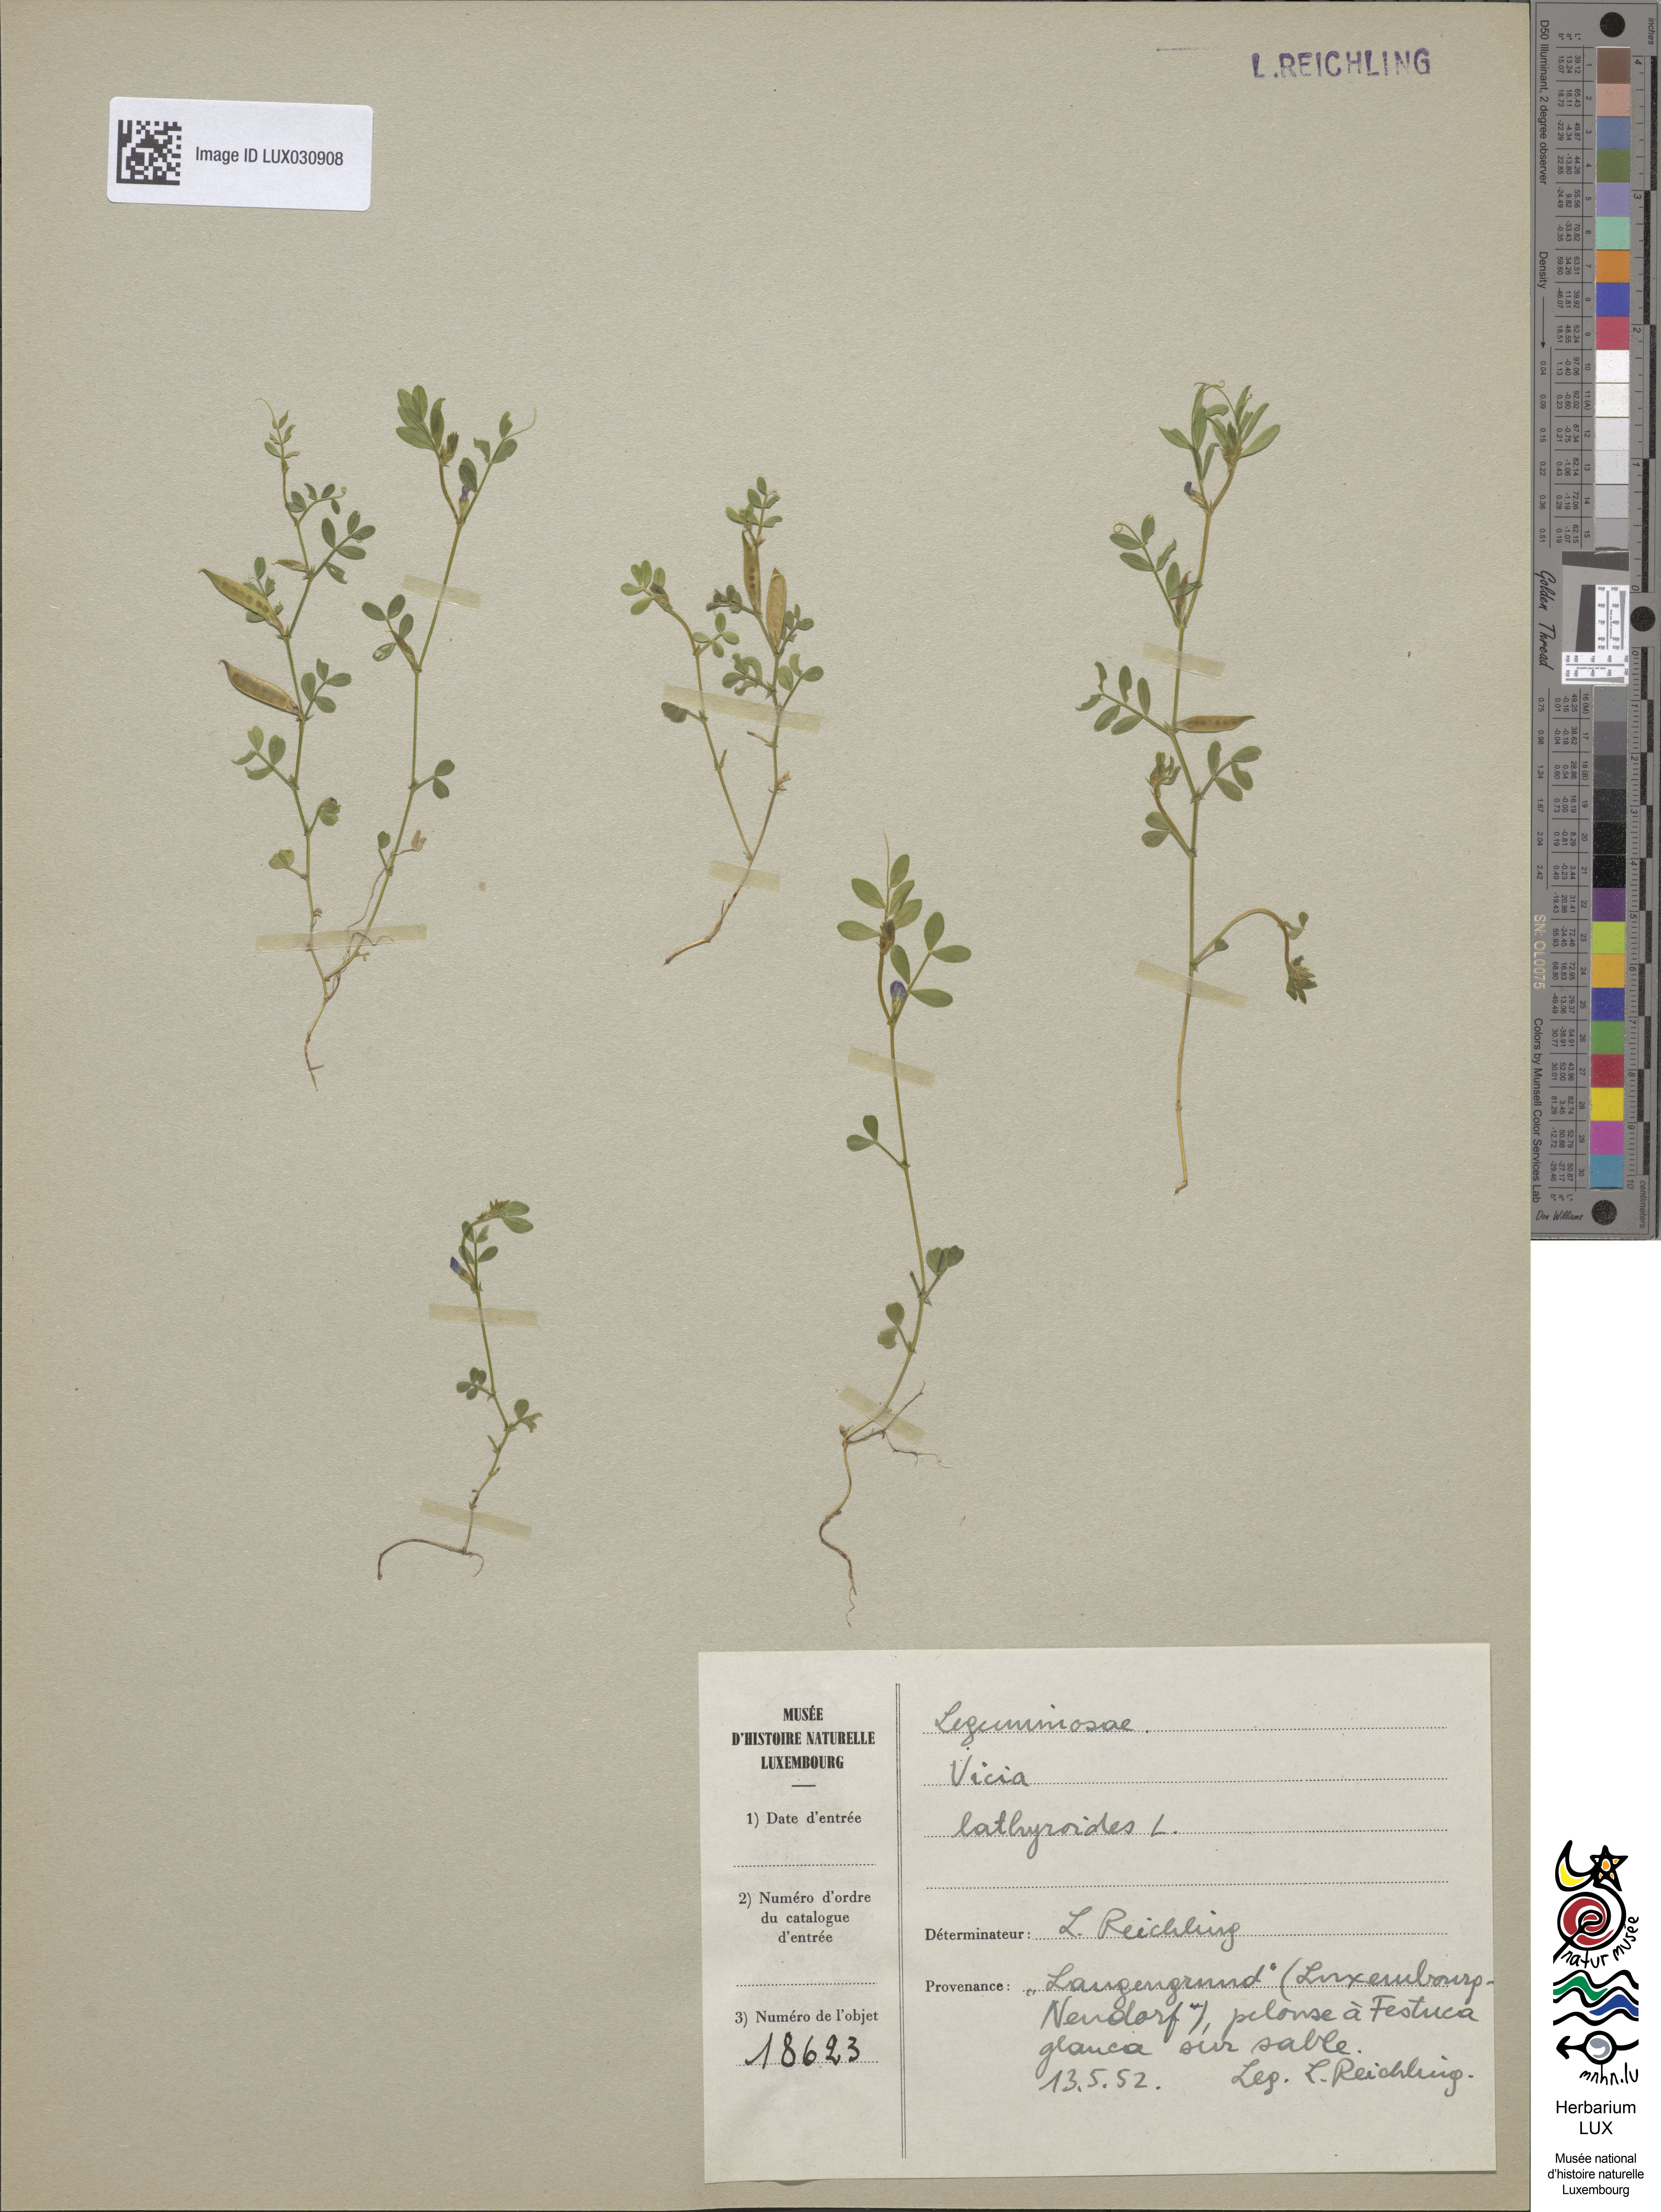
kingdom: Plantae
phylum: Tracheophyta
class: Magnoliopsida
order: Fabales
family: Fabaceae
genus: Vicia
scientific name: Vicia lathyroides
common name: Spring vetch
